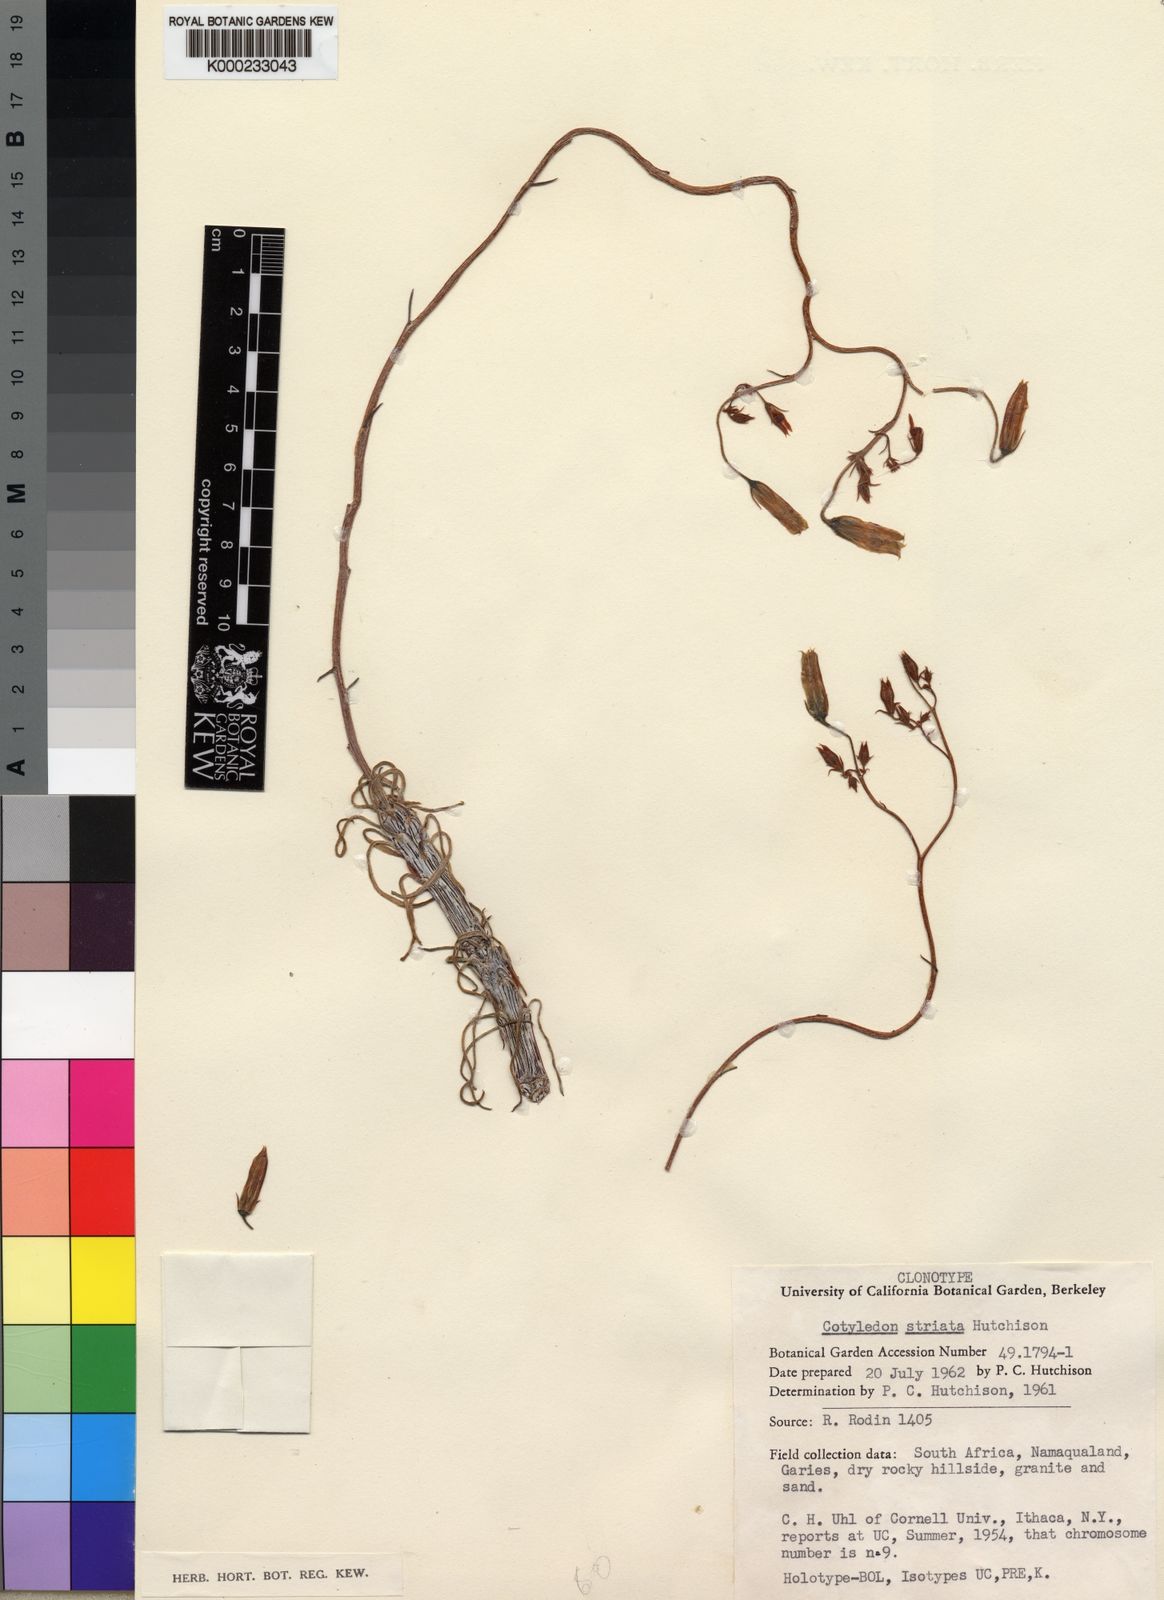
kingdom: Plantae
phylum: Tracheophyta
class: Magnoliopsida
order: Saxifragales
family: Crassulaceae
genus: Tylecodon
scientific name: Tylecodon striatus
